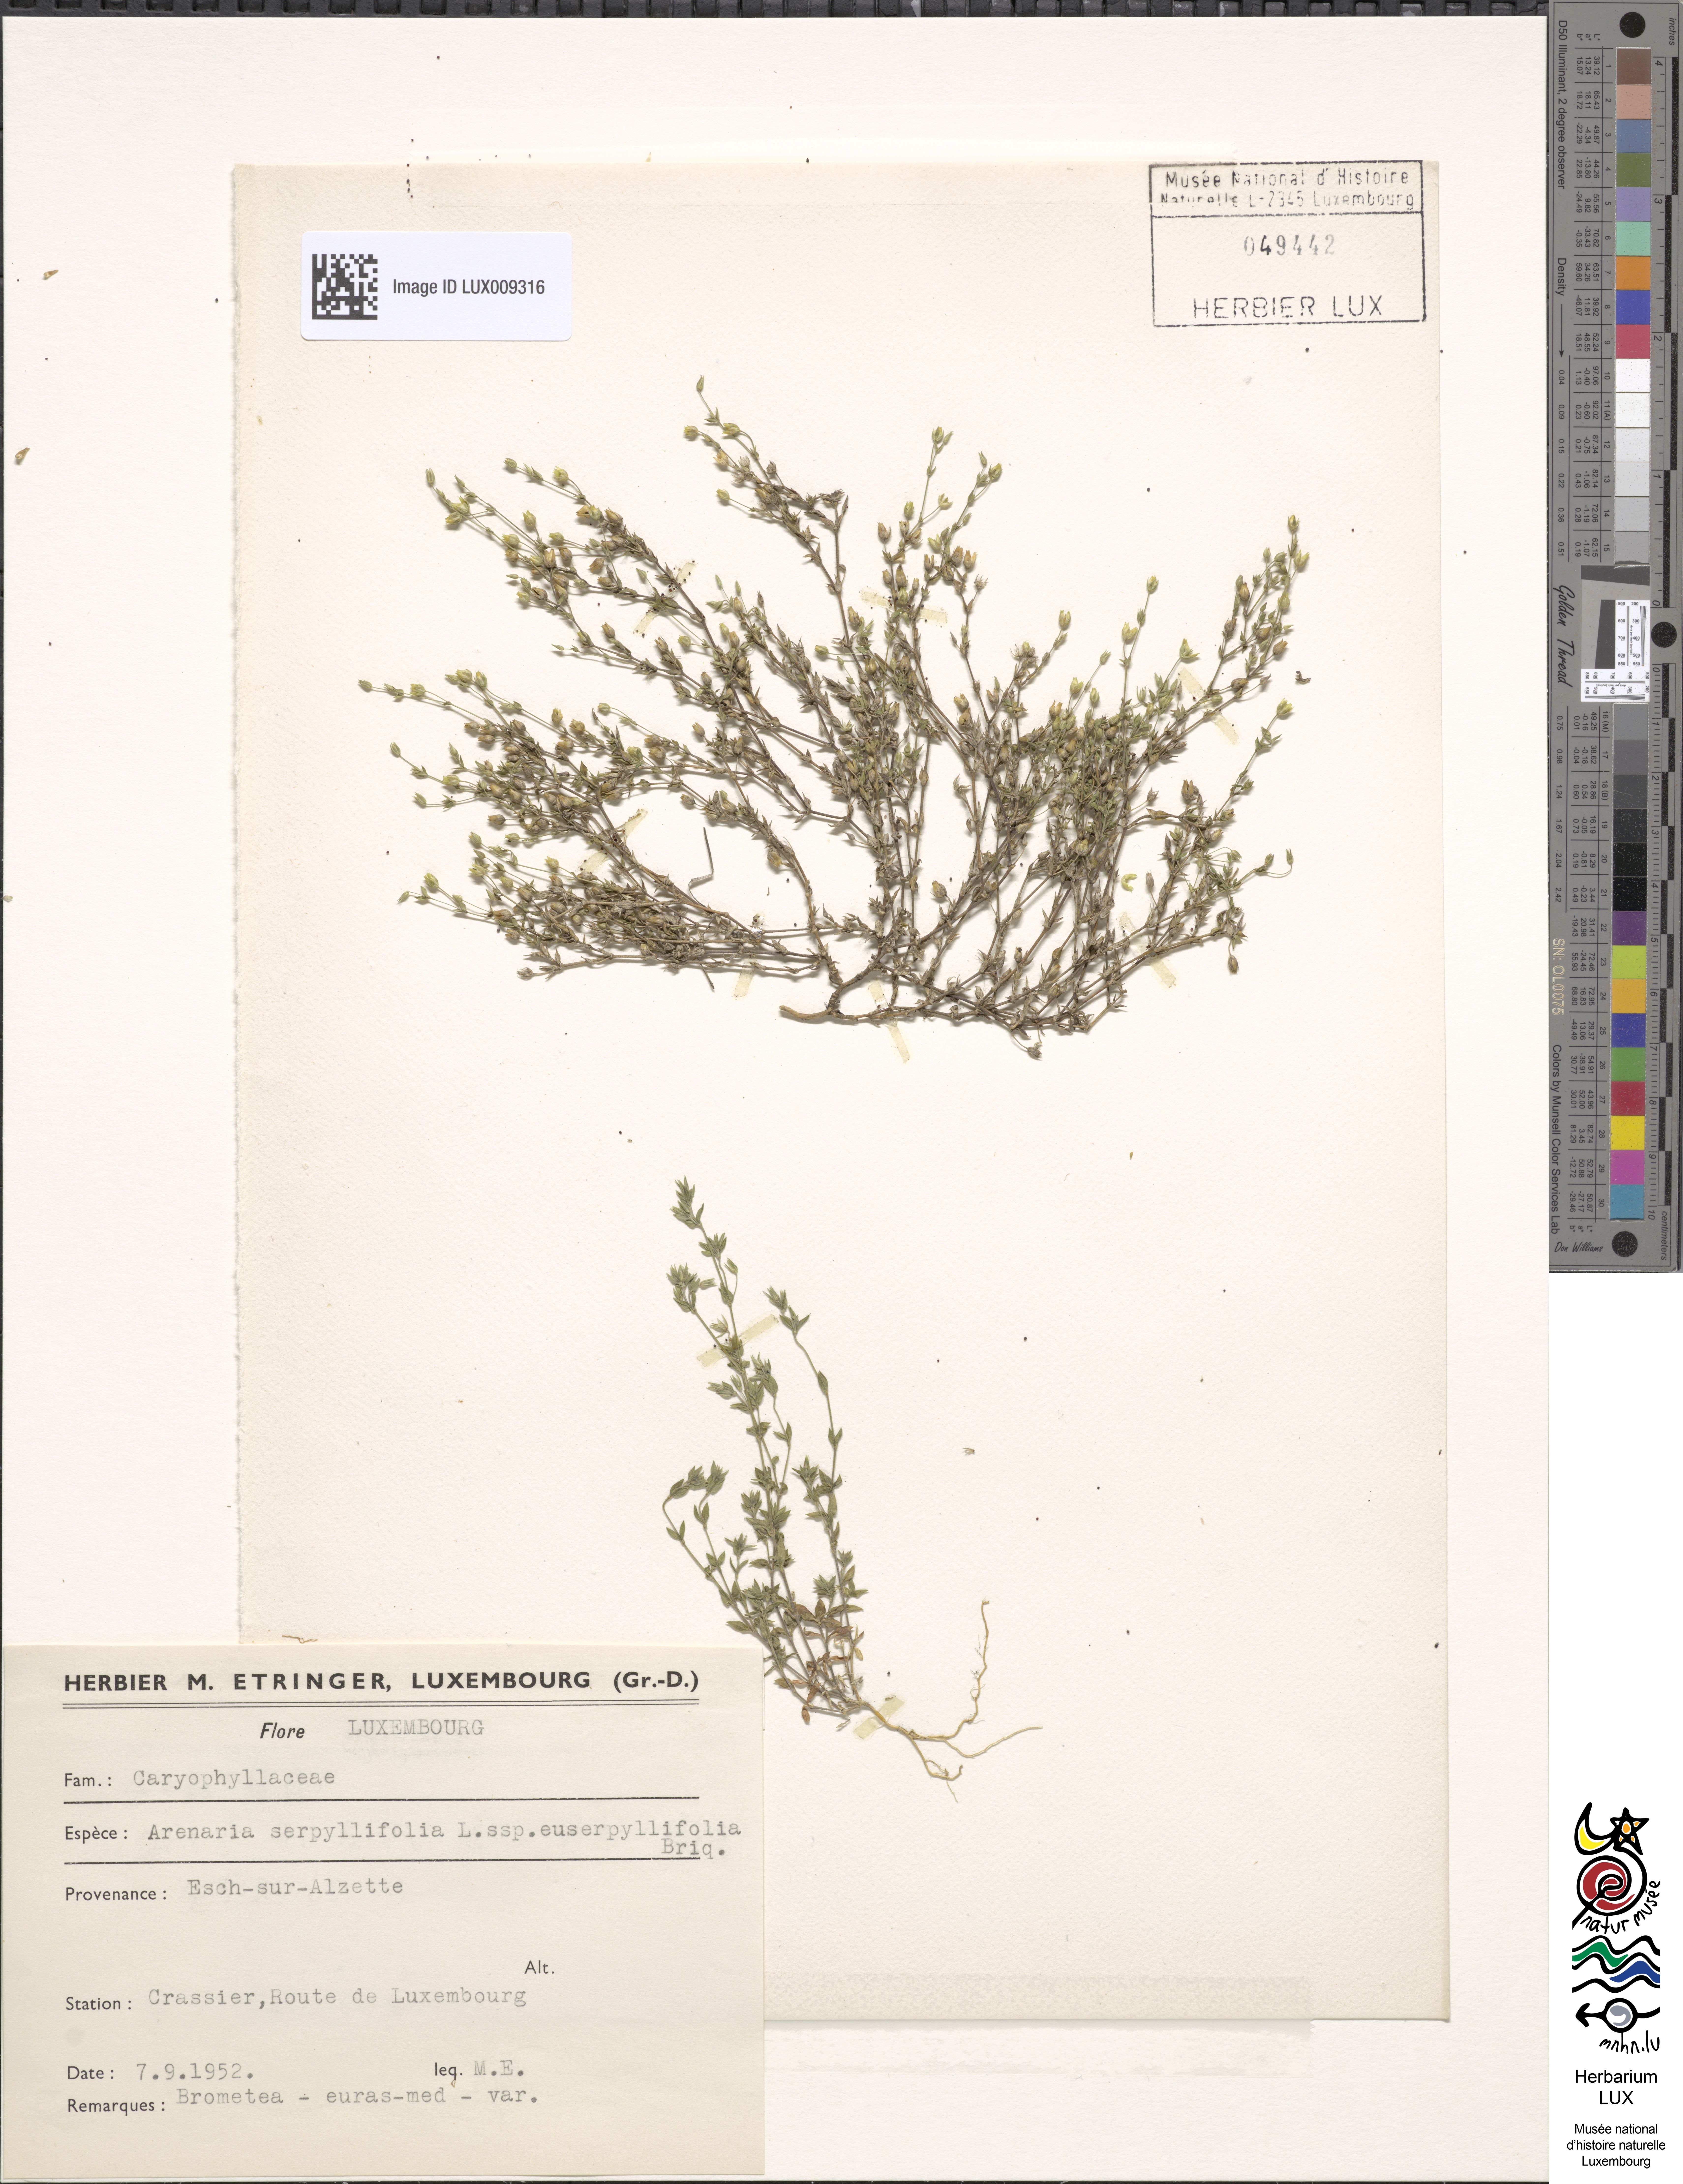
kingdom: Plantae
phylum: Tracheophyta
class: Magnoliopsida
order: Caryophyllales
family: Caryophyllaceae
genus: Arenaria
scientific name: Arenaria serpyllifolia
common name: Thyme-leaved sandwort
